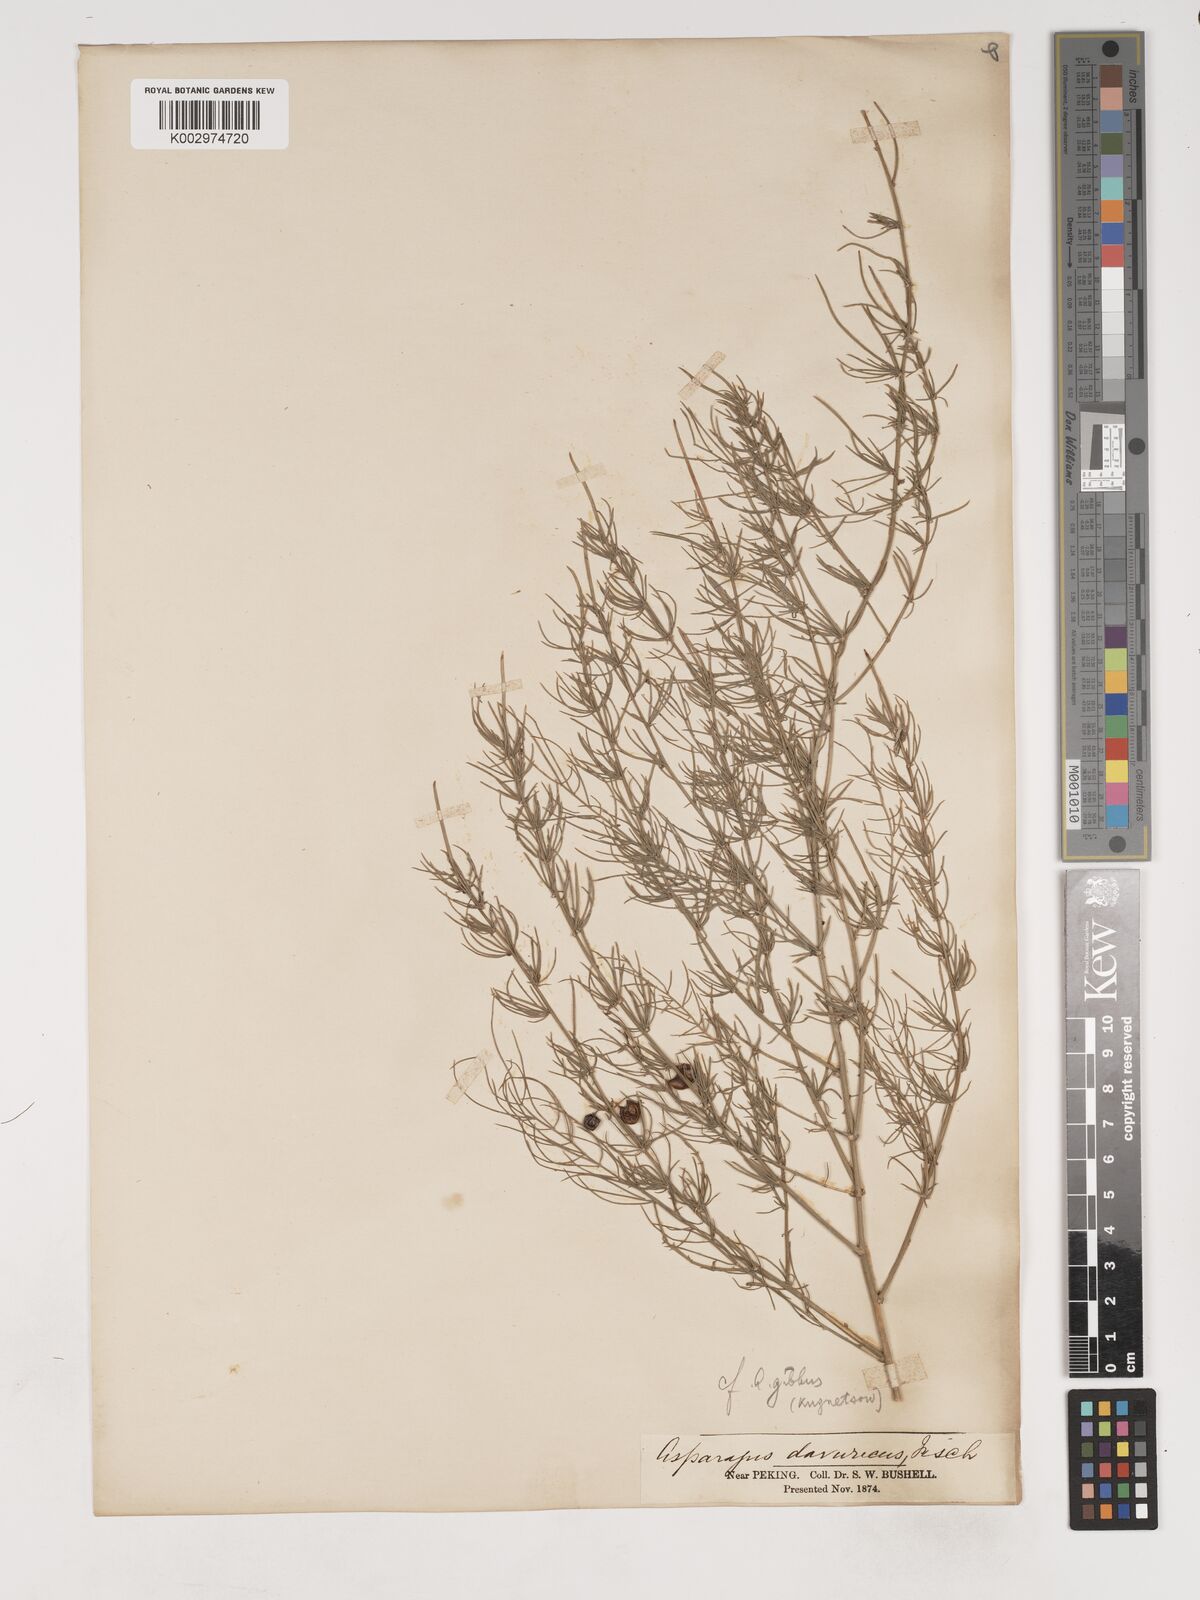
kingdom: Plantae
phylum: Tracheophyta
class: Liliopsida
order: Asparagales
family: Asparagaceae
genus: Asparagus
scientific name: Asparagus dauricus
